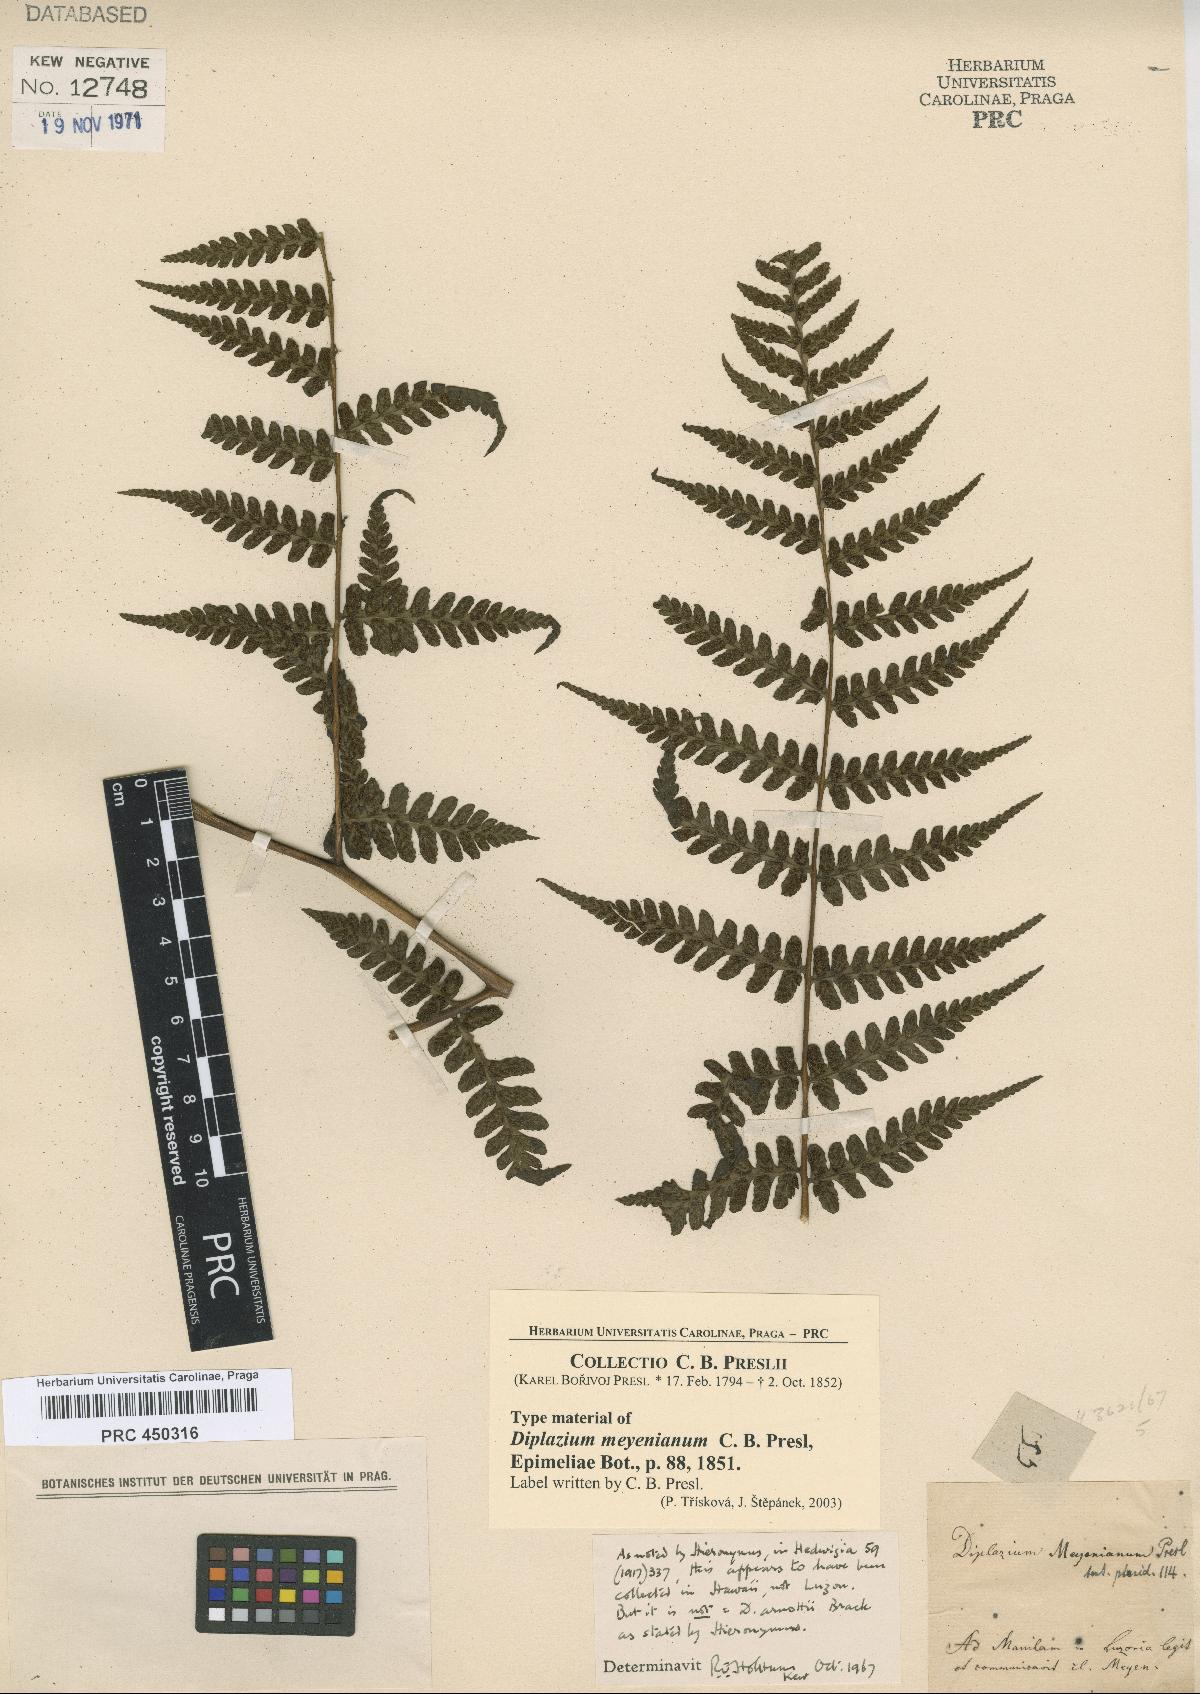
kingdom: Plantae
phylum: Tracheophyta
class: Polypodiopsida
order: Polypodiales
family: Athyriaceae
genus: Diplazium
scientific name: Diplazium melanopodium
